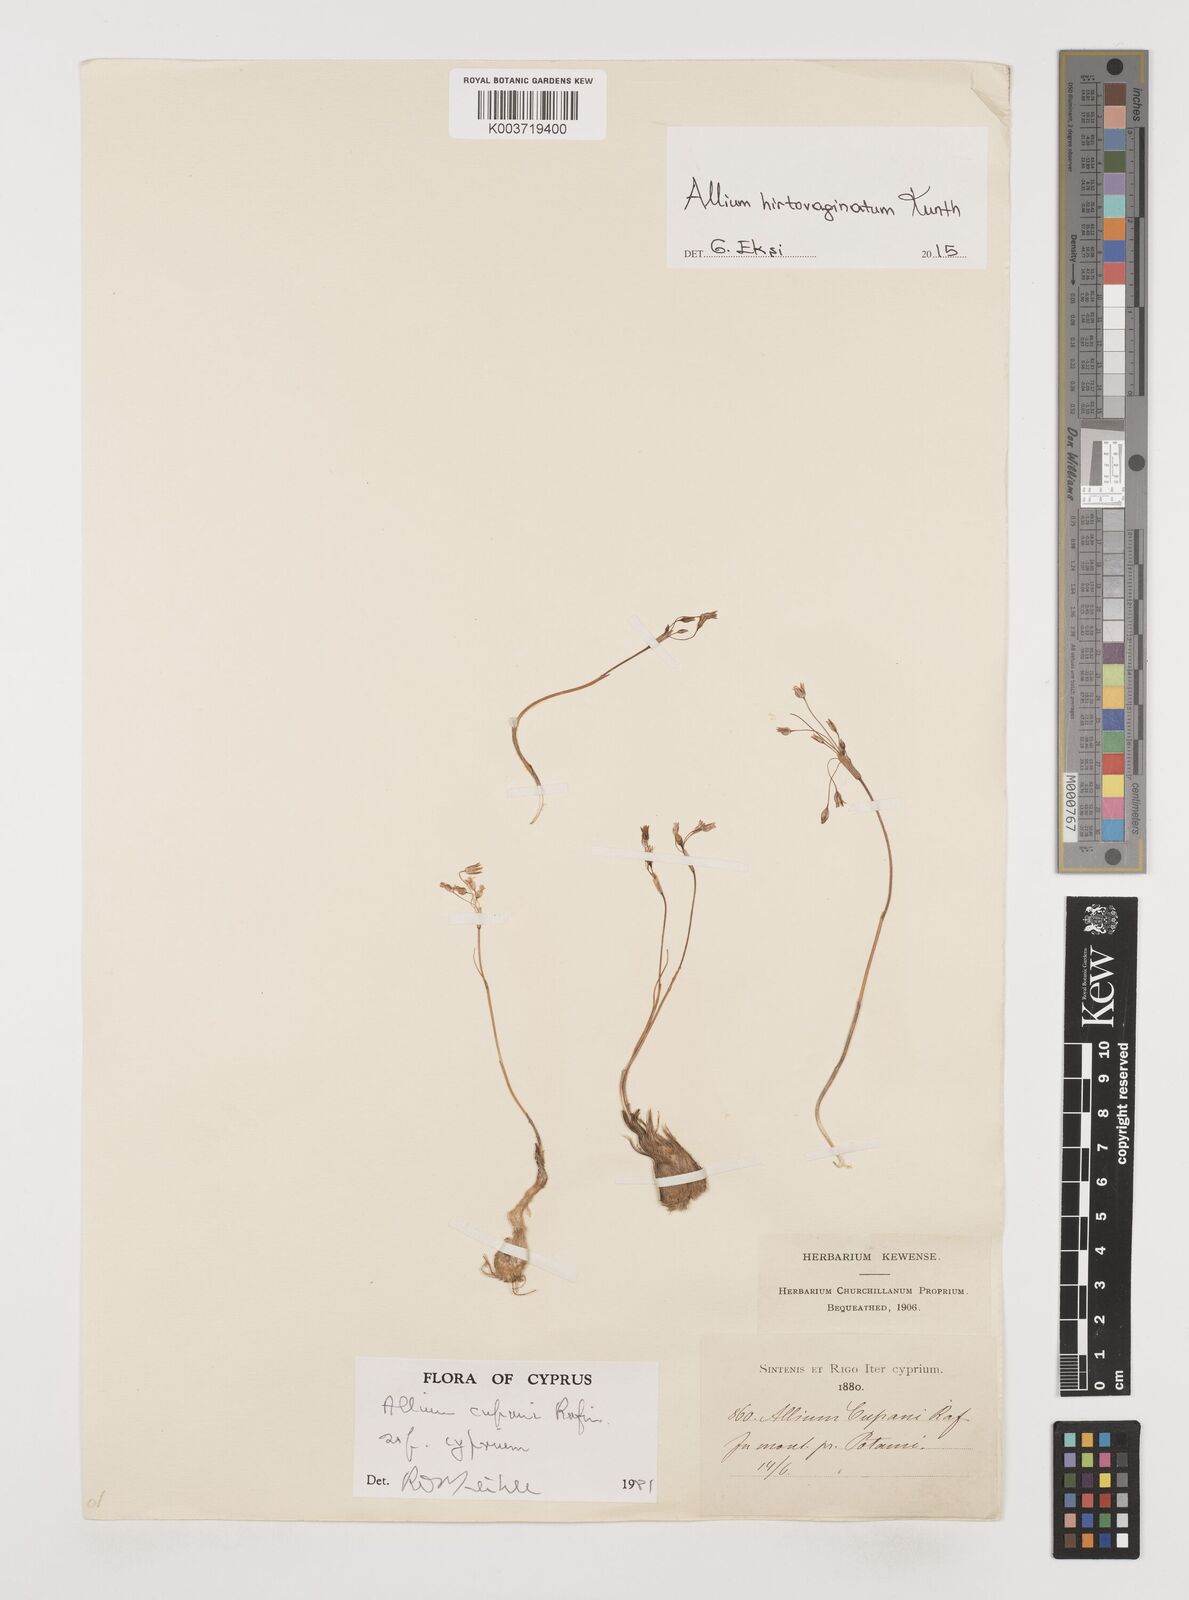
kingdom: Plantae
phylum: Tracheophyta
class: Liliopsida
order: Asparagales
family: Amaryllidaceae
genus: Allium
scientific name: Allium cupani
